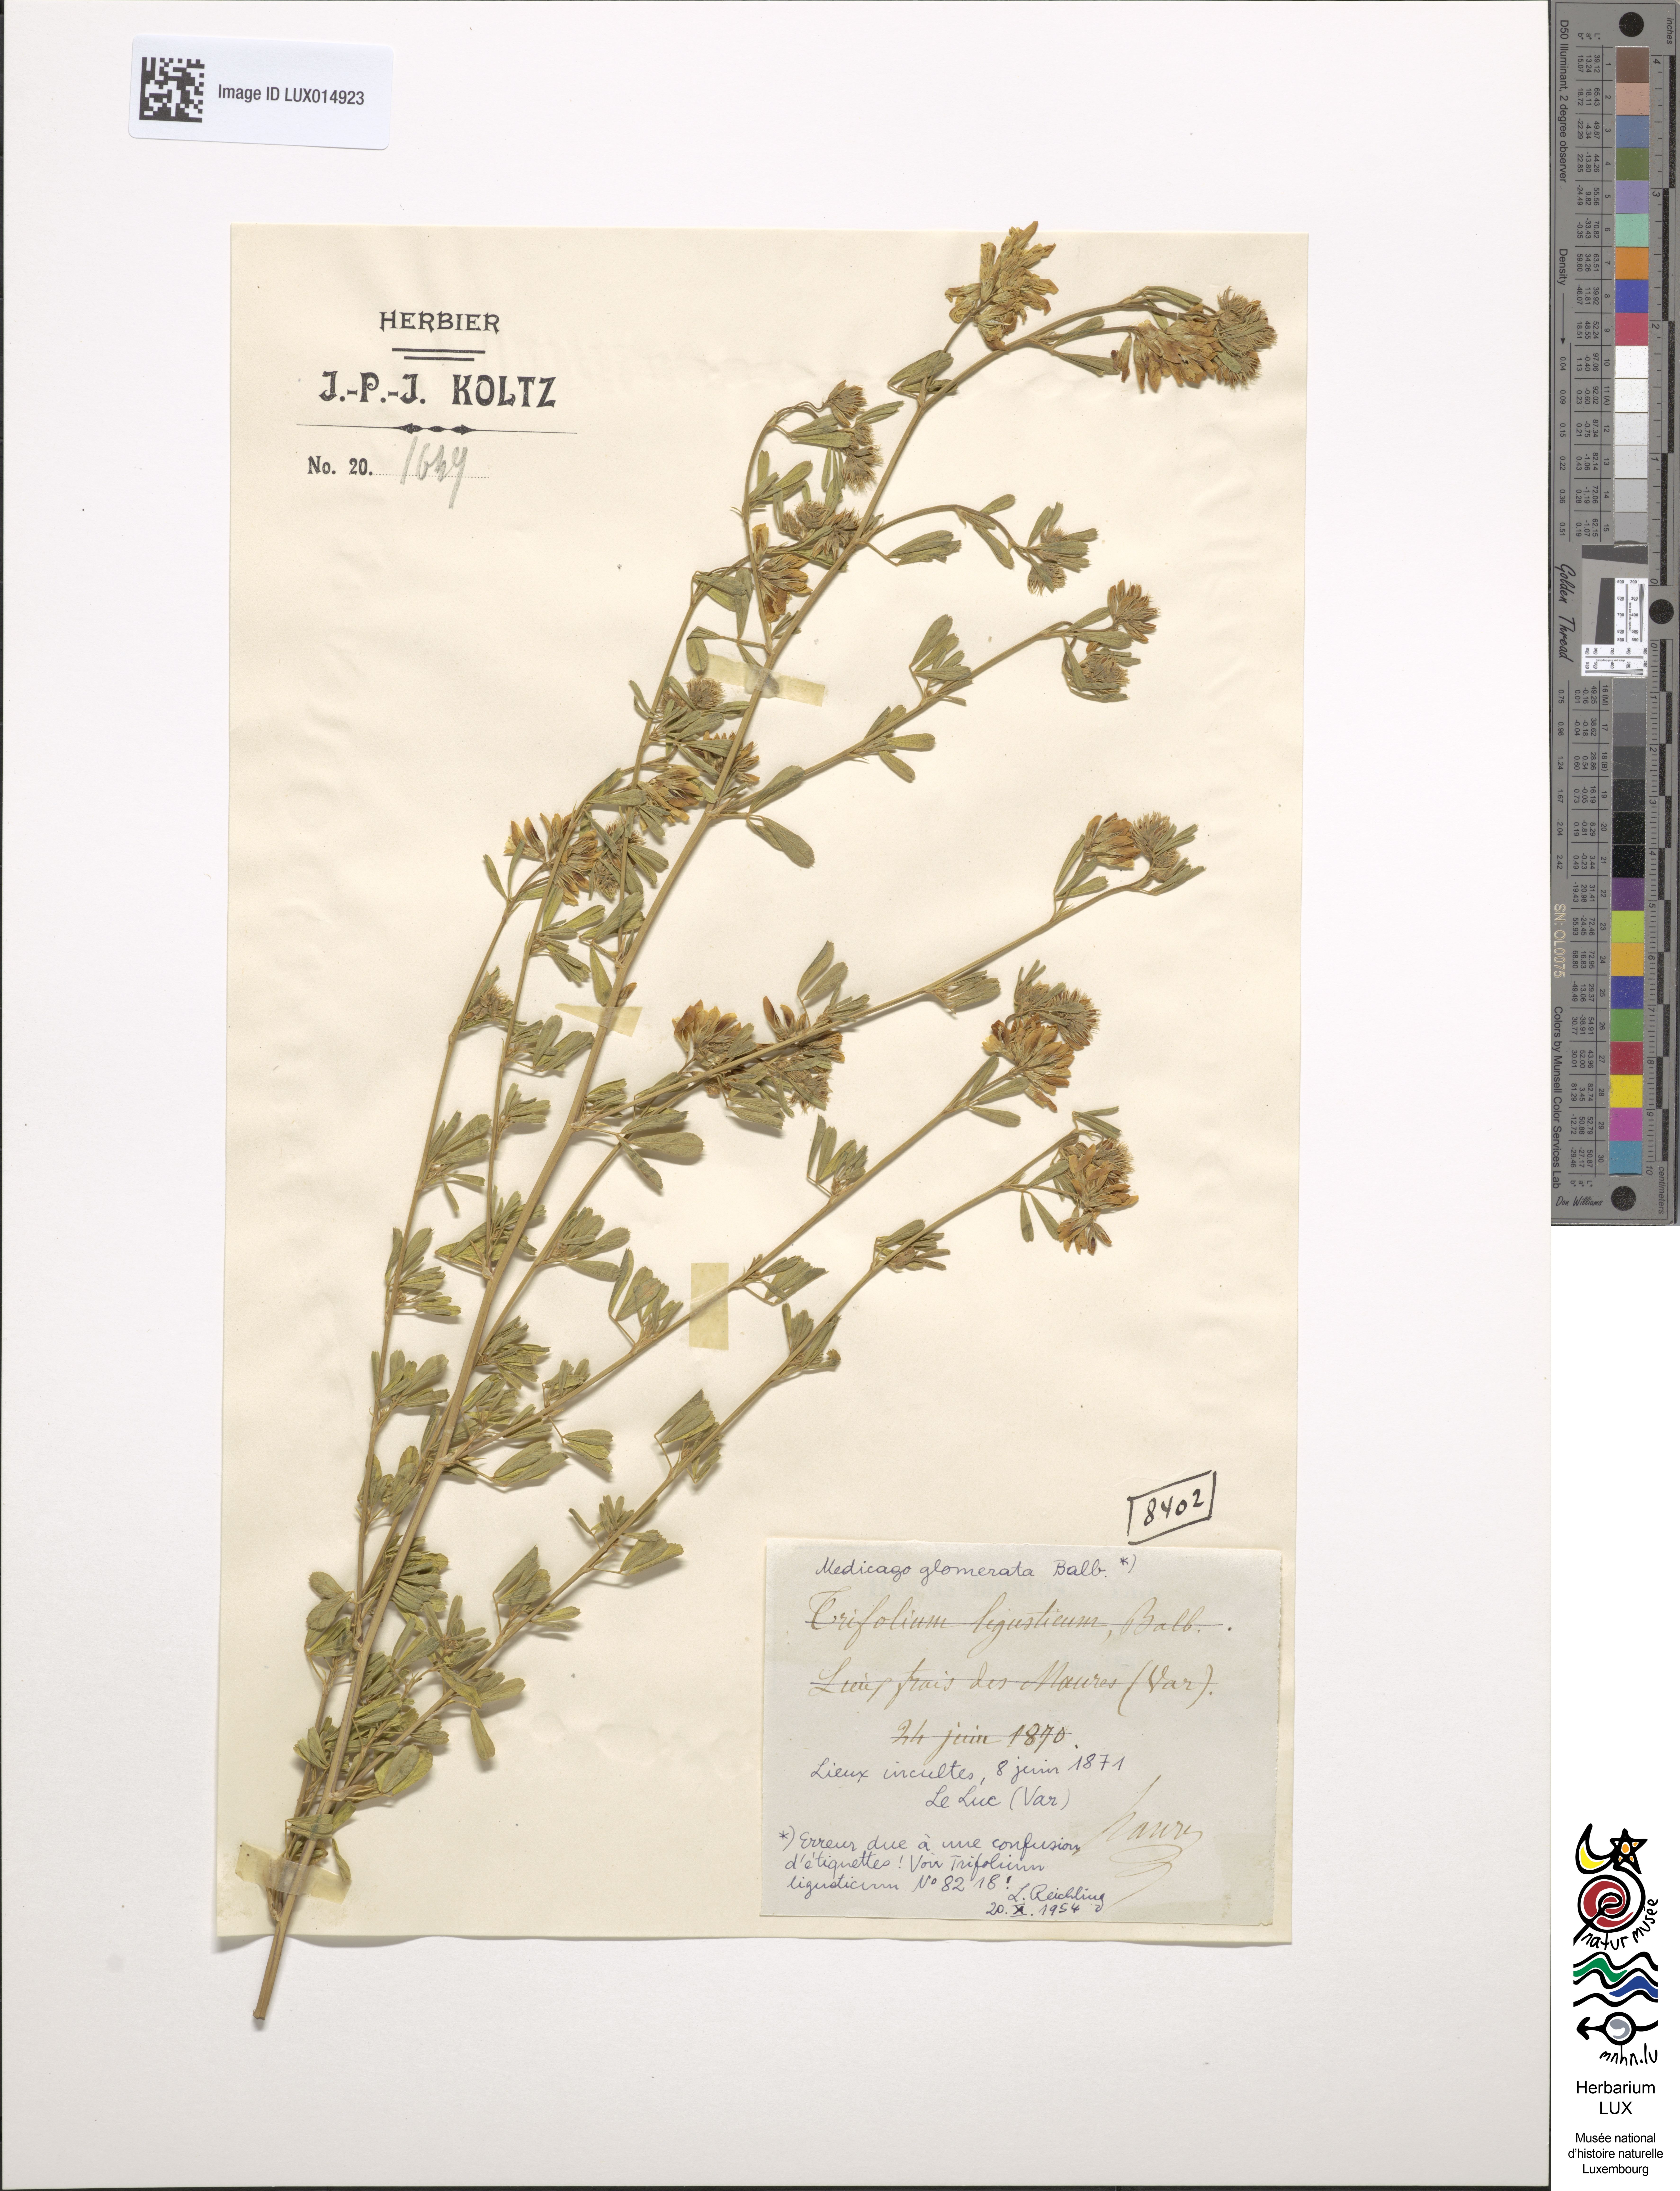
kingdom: Plantae
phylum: Tracheophyta
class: Magnoliopsida
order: Fabales
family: Fabaceae
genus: Medicago
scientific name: Medicago sativa
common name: Alfalfa
